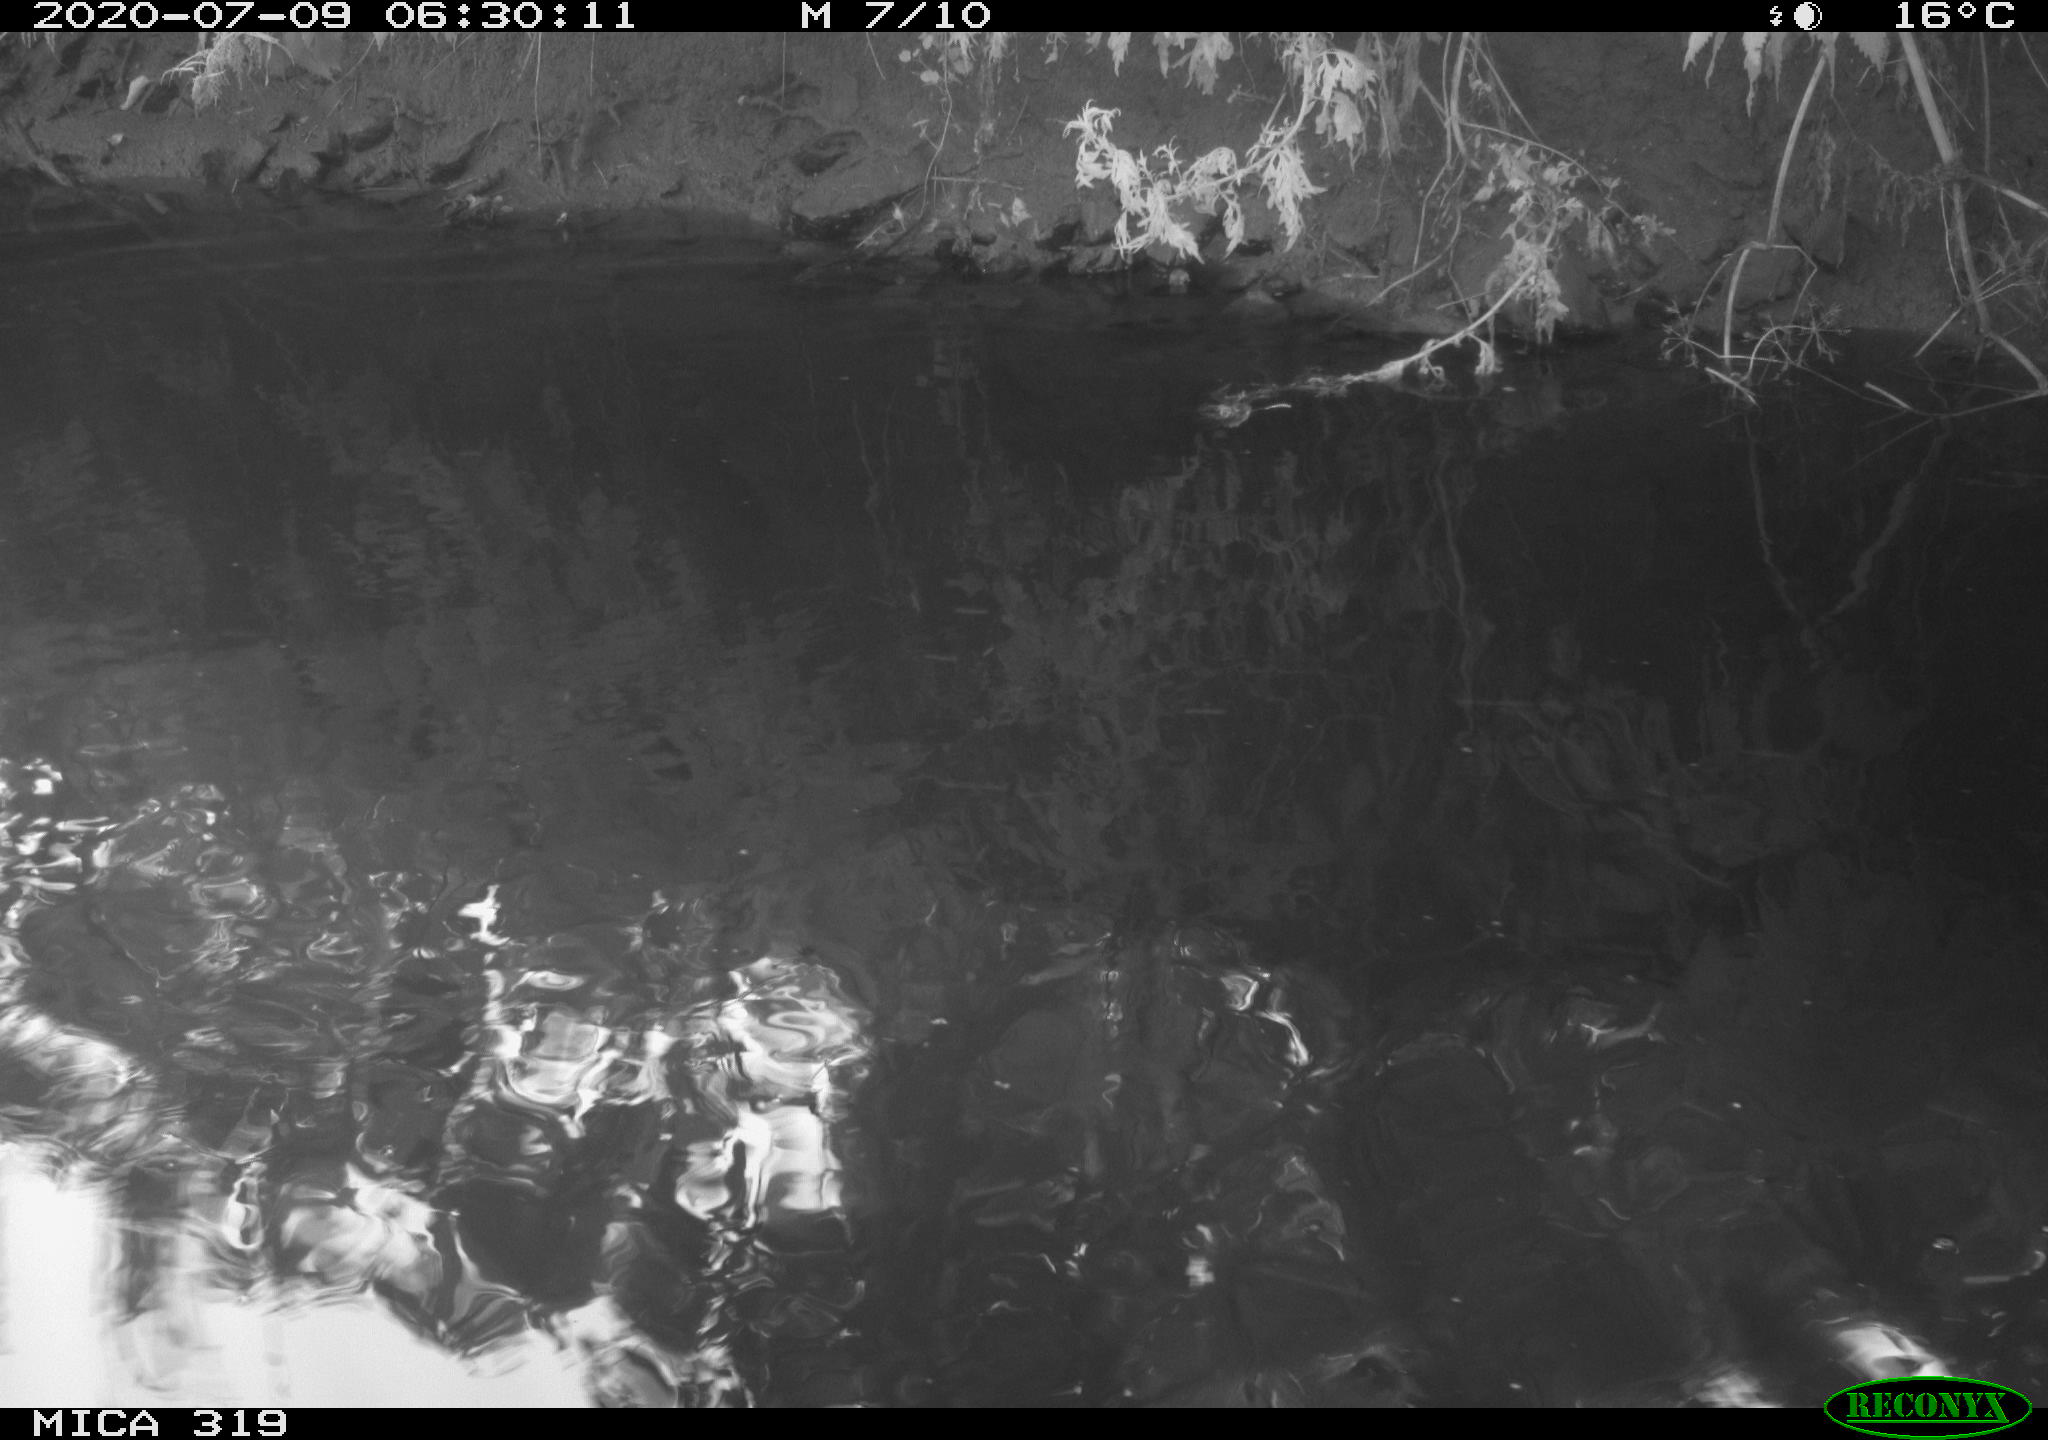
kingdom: Animalia
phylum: Chordata
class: Aves
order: Anseriformes
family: Anatidae
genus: Anas
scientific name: Anas platyrhynchos
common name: Mallard
